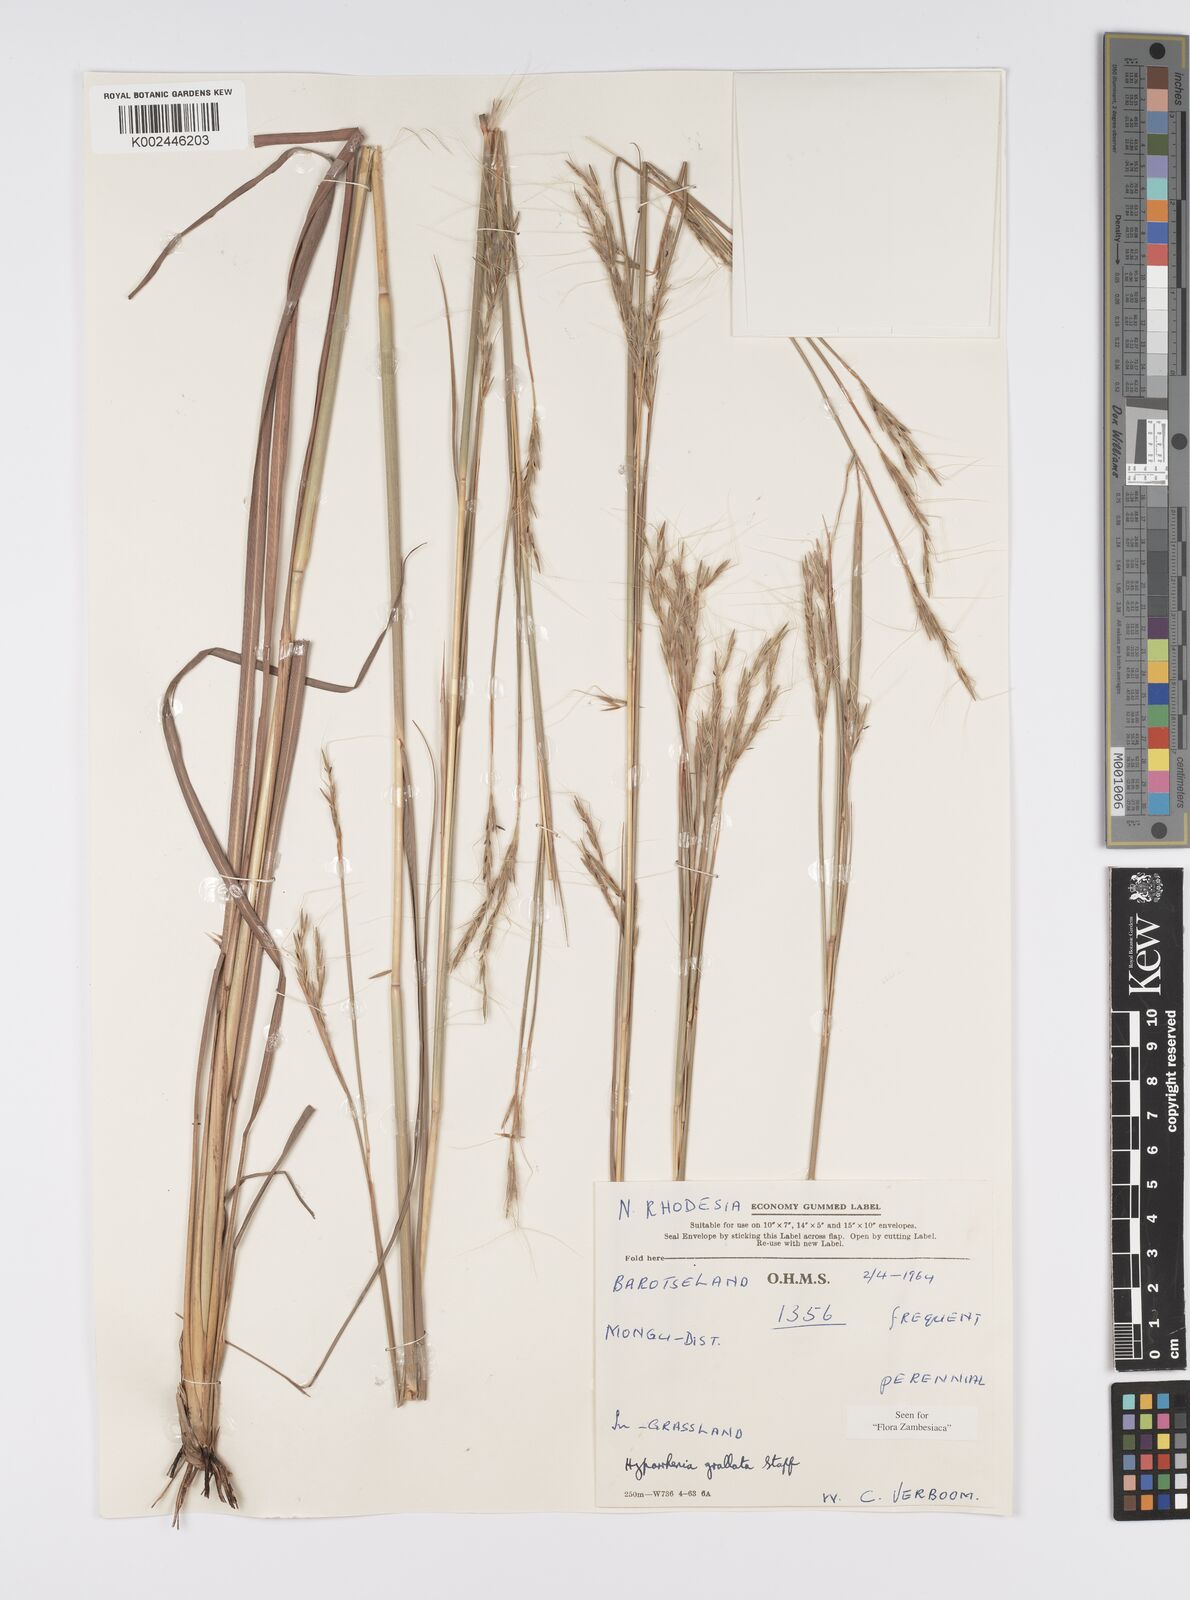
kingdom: Plantae
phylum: Tracheophyta
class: Liliopsida
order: Poales
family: Poaceae
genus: Elymandra
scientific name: Elymandra grallata
